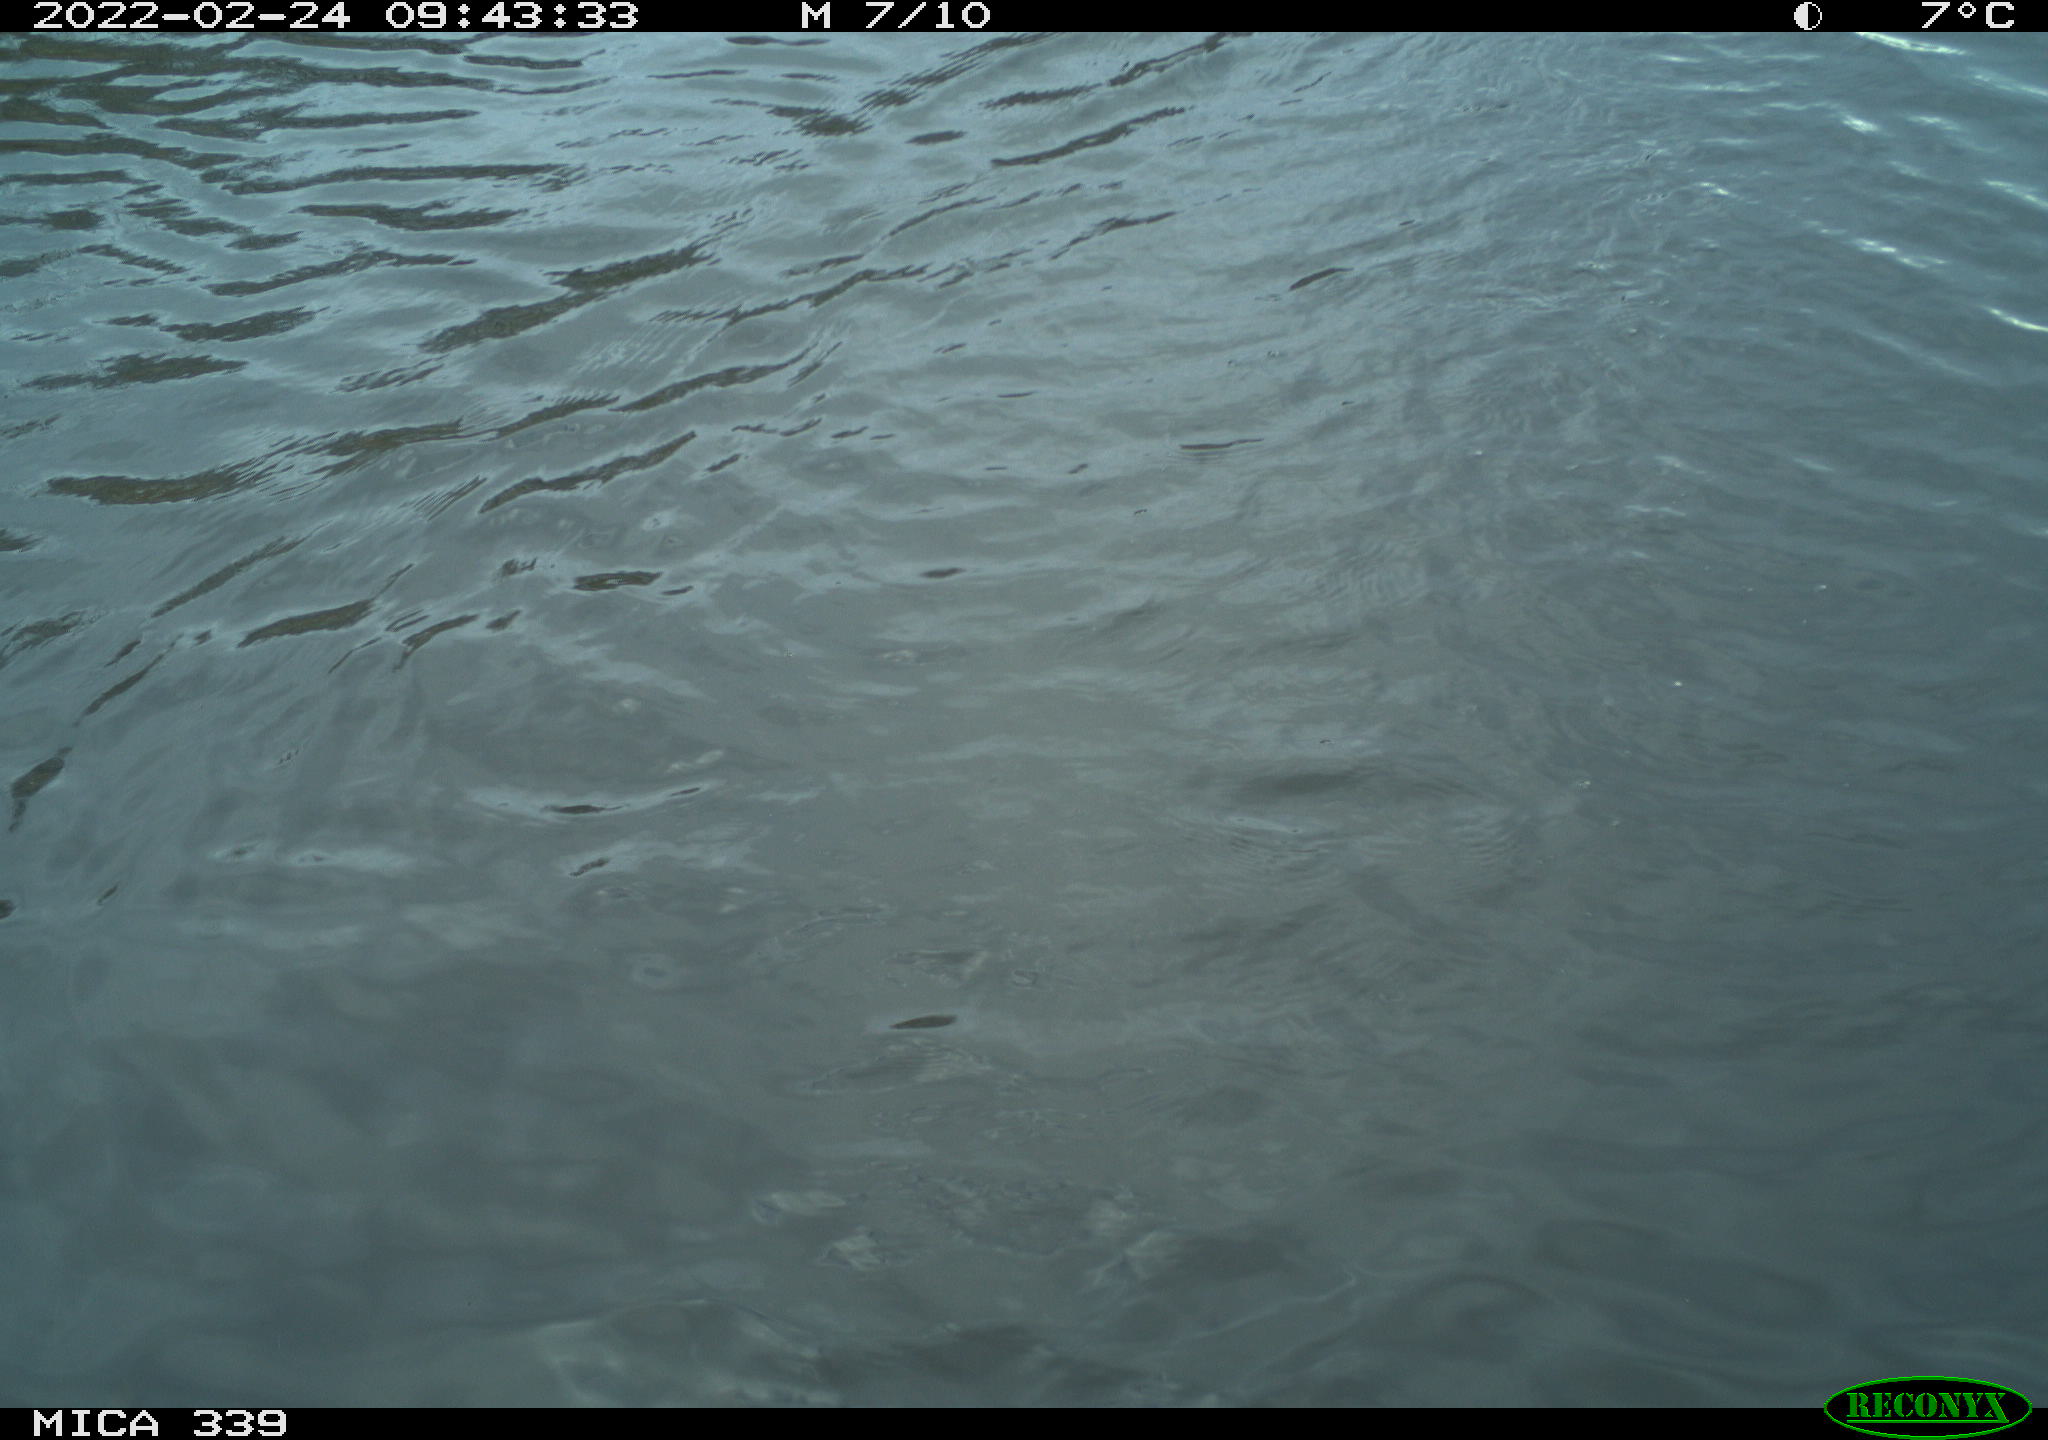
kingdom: Animalia
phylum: Chordata
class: Aves
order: Suliformes
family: Phalacrocoracidae
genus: Phalacrocorax
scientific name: Phalacrocorax carbo
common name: Great cormorant
